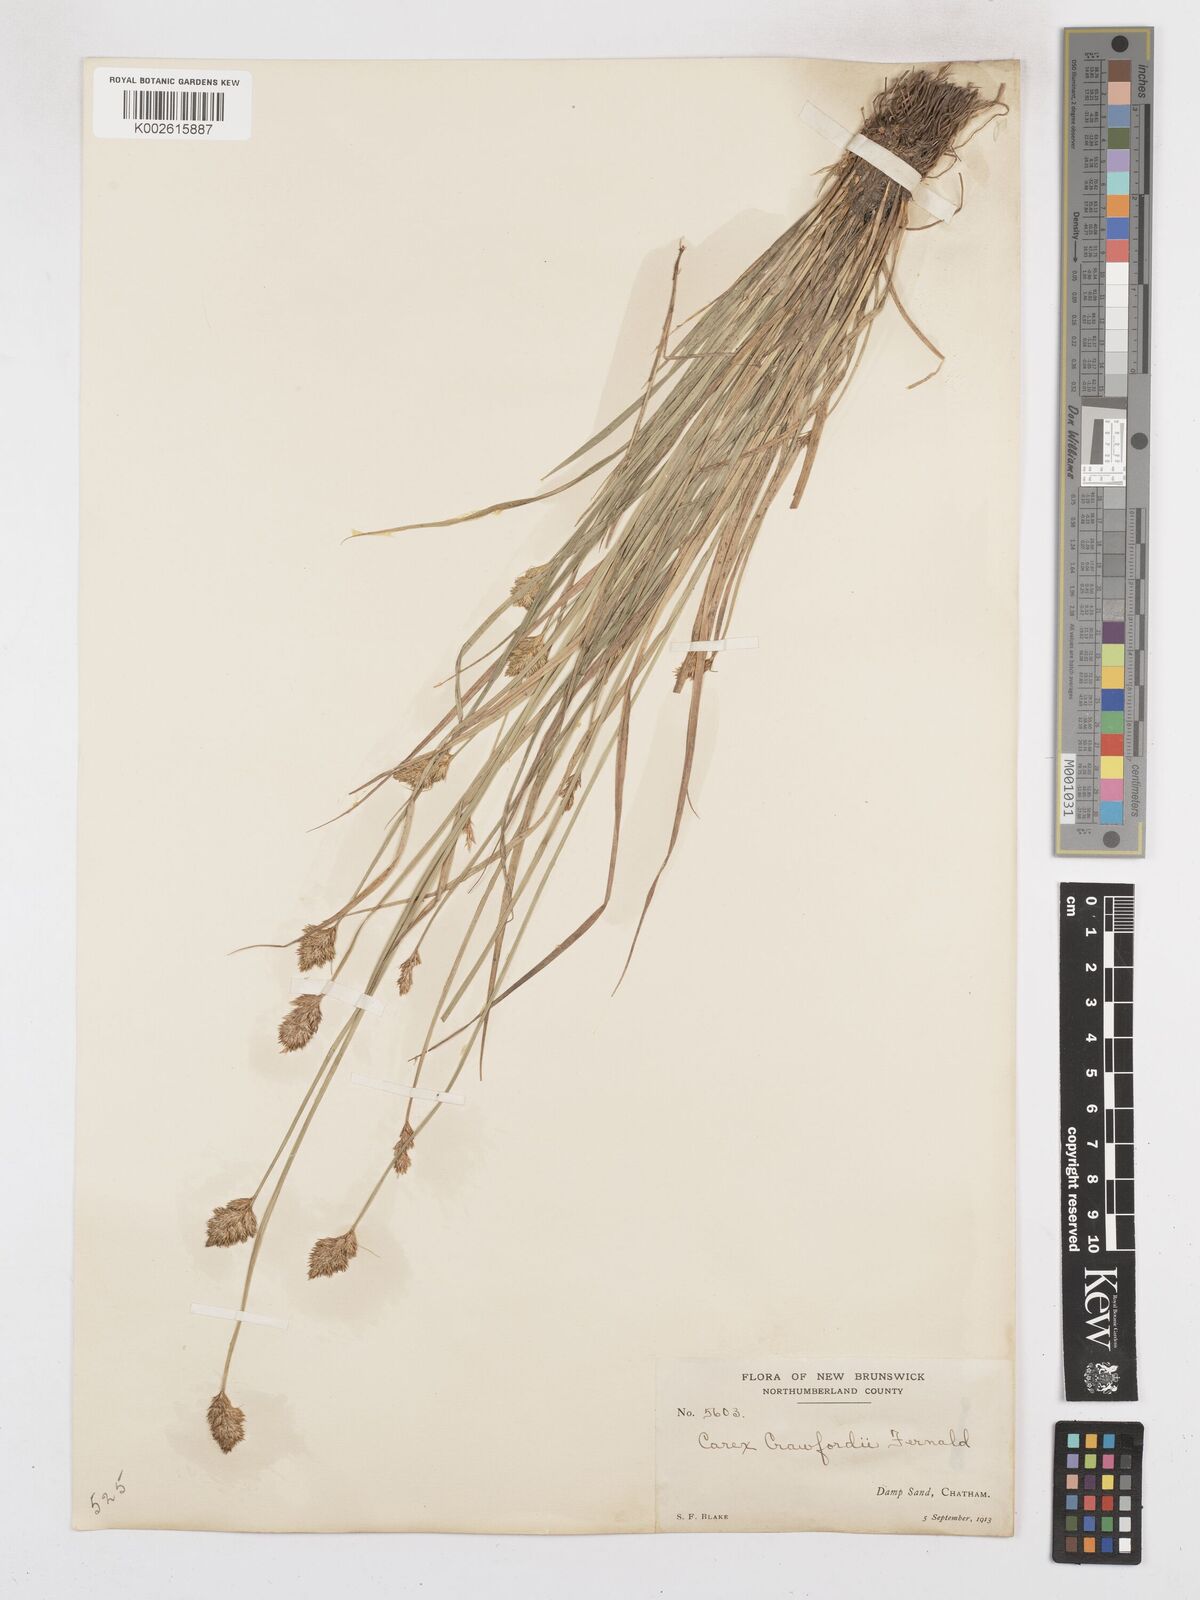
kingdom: Plantae
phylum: Tracheophyta
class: Liliopsida
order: Poales
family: Cyperaceae
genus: Carex
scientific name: Carex crawfordii
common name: Crawford's sedge
